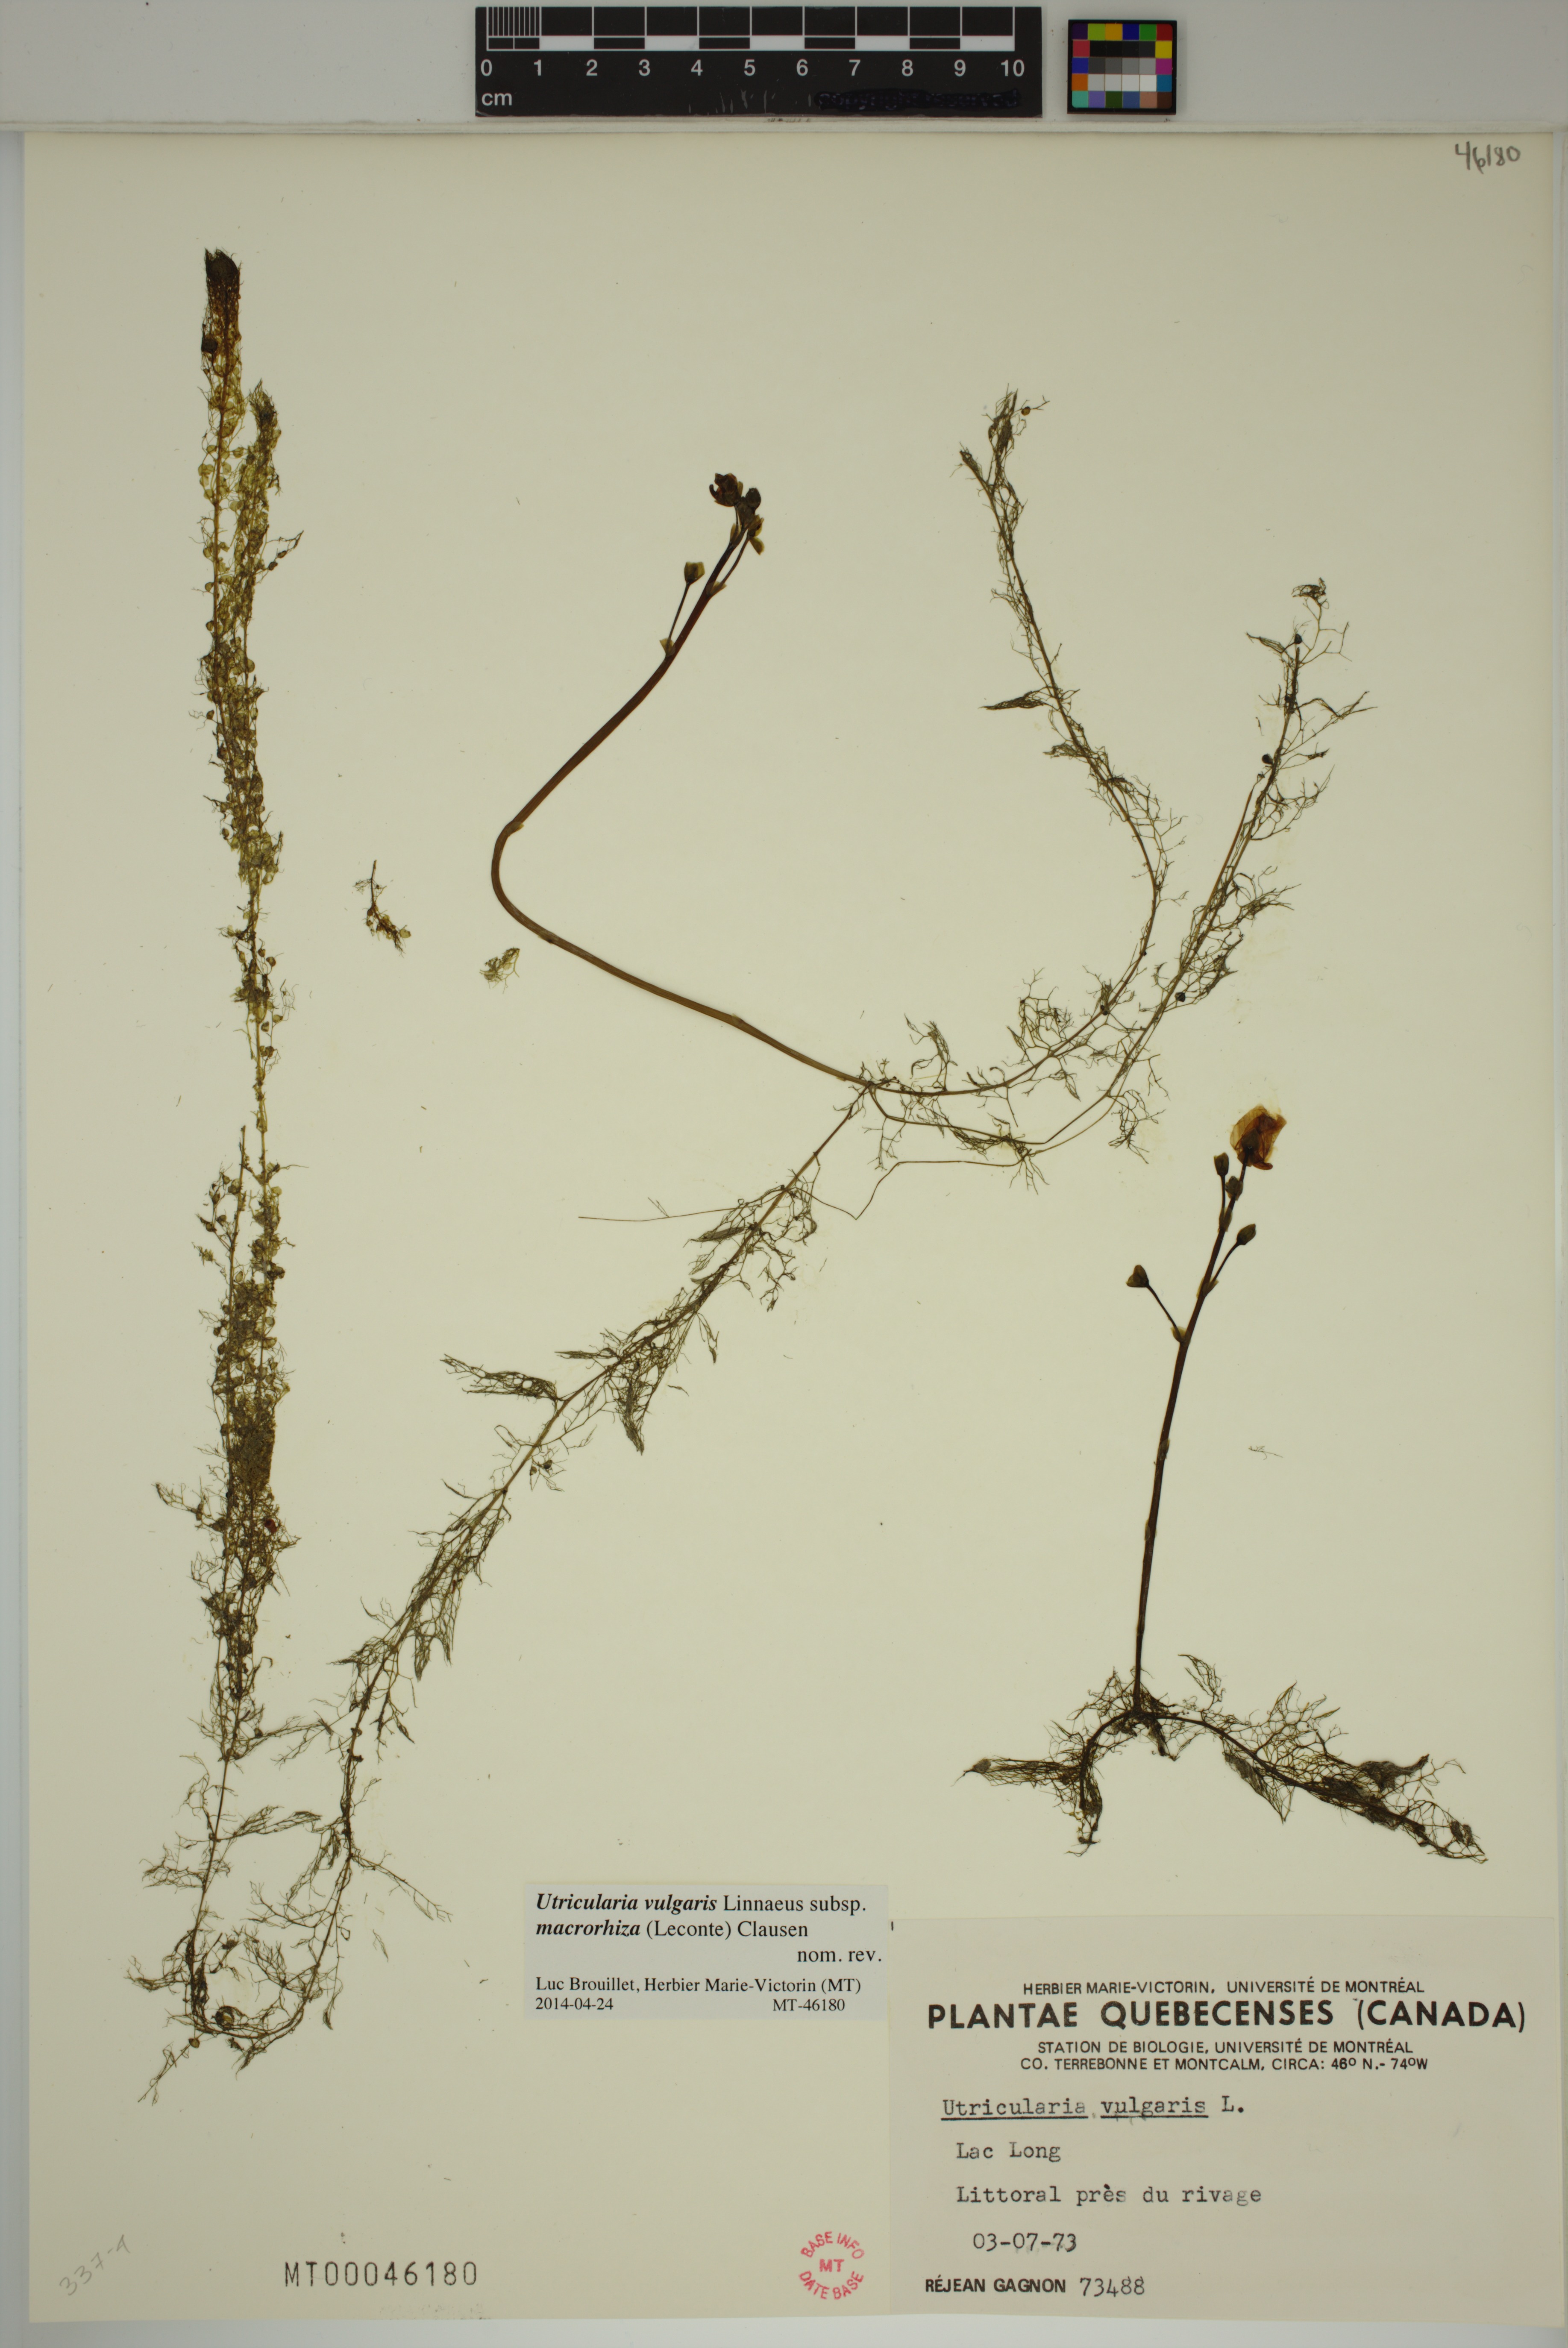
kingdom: Plantae
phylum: Tracheophyta
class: Magnoliopsida
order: Lamiales
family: Lentibulariaceae
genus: Utricularia
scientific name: Utricularia macrorhiza
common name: Common bladderwort
